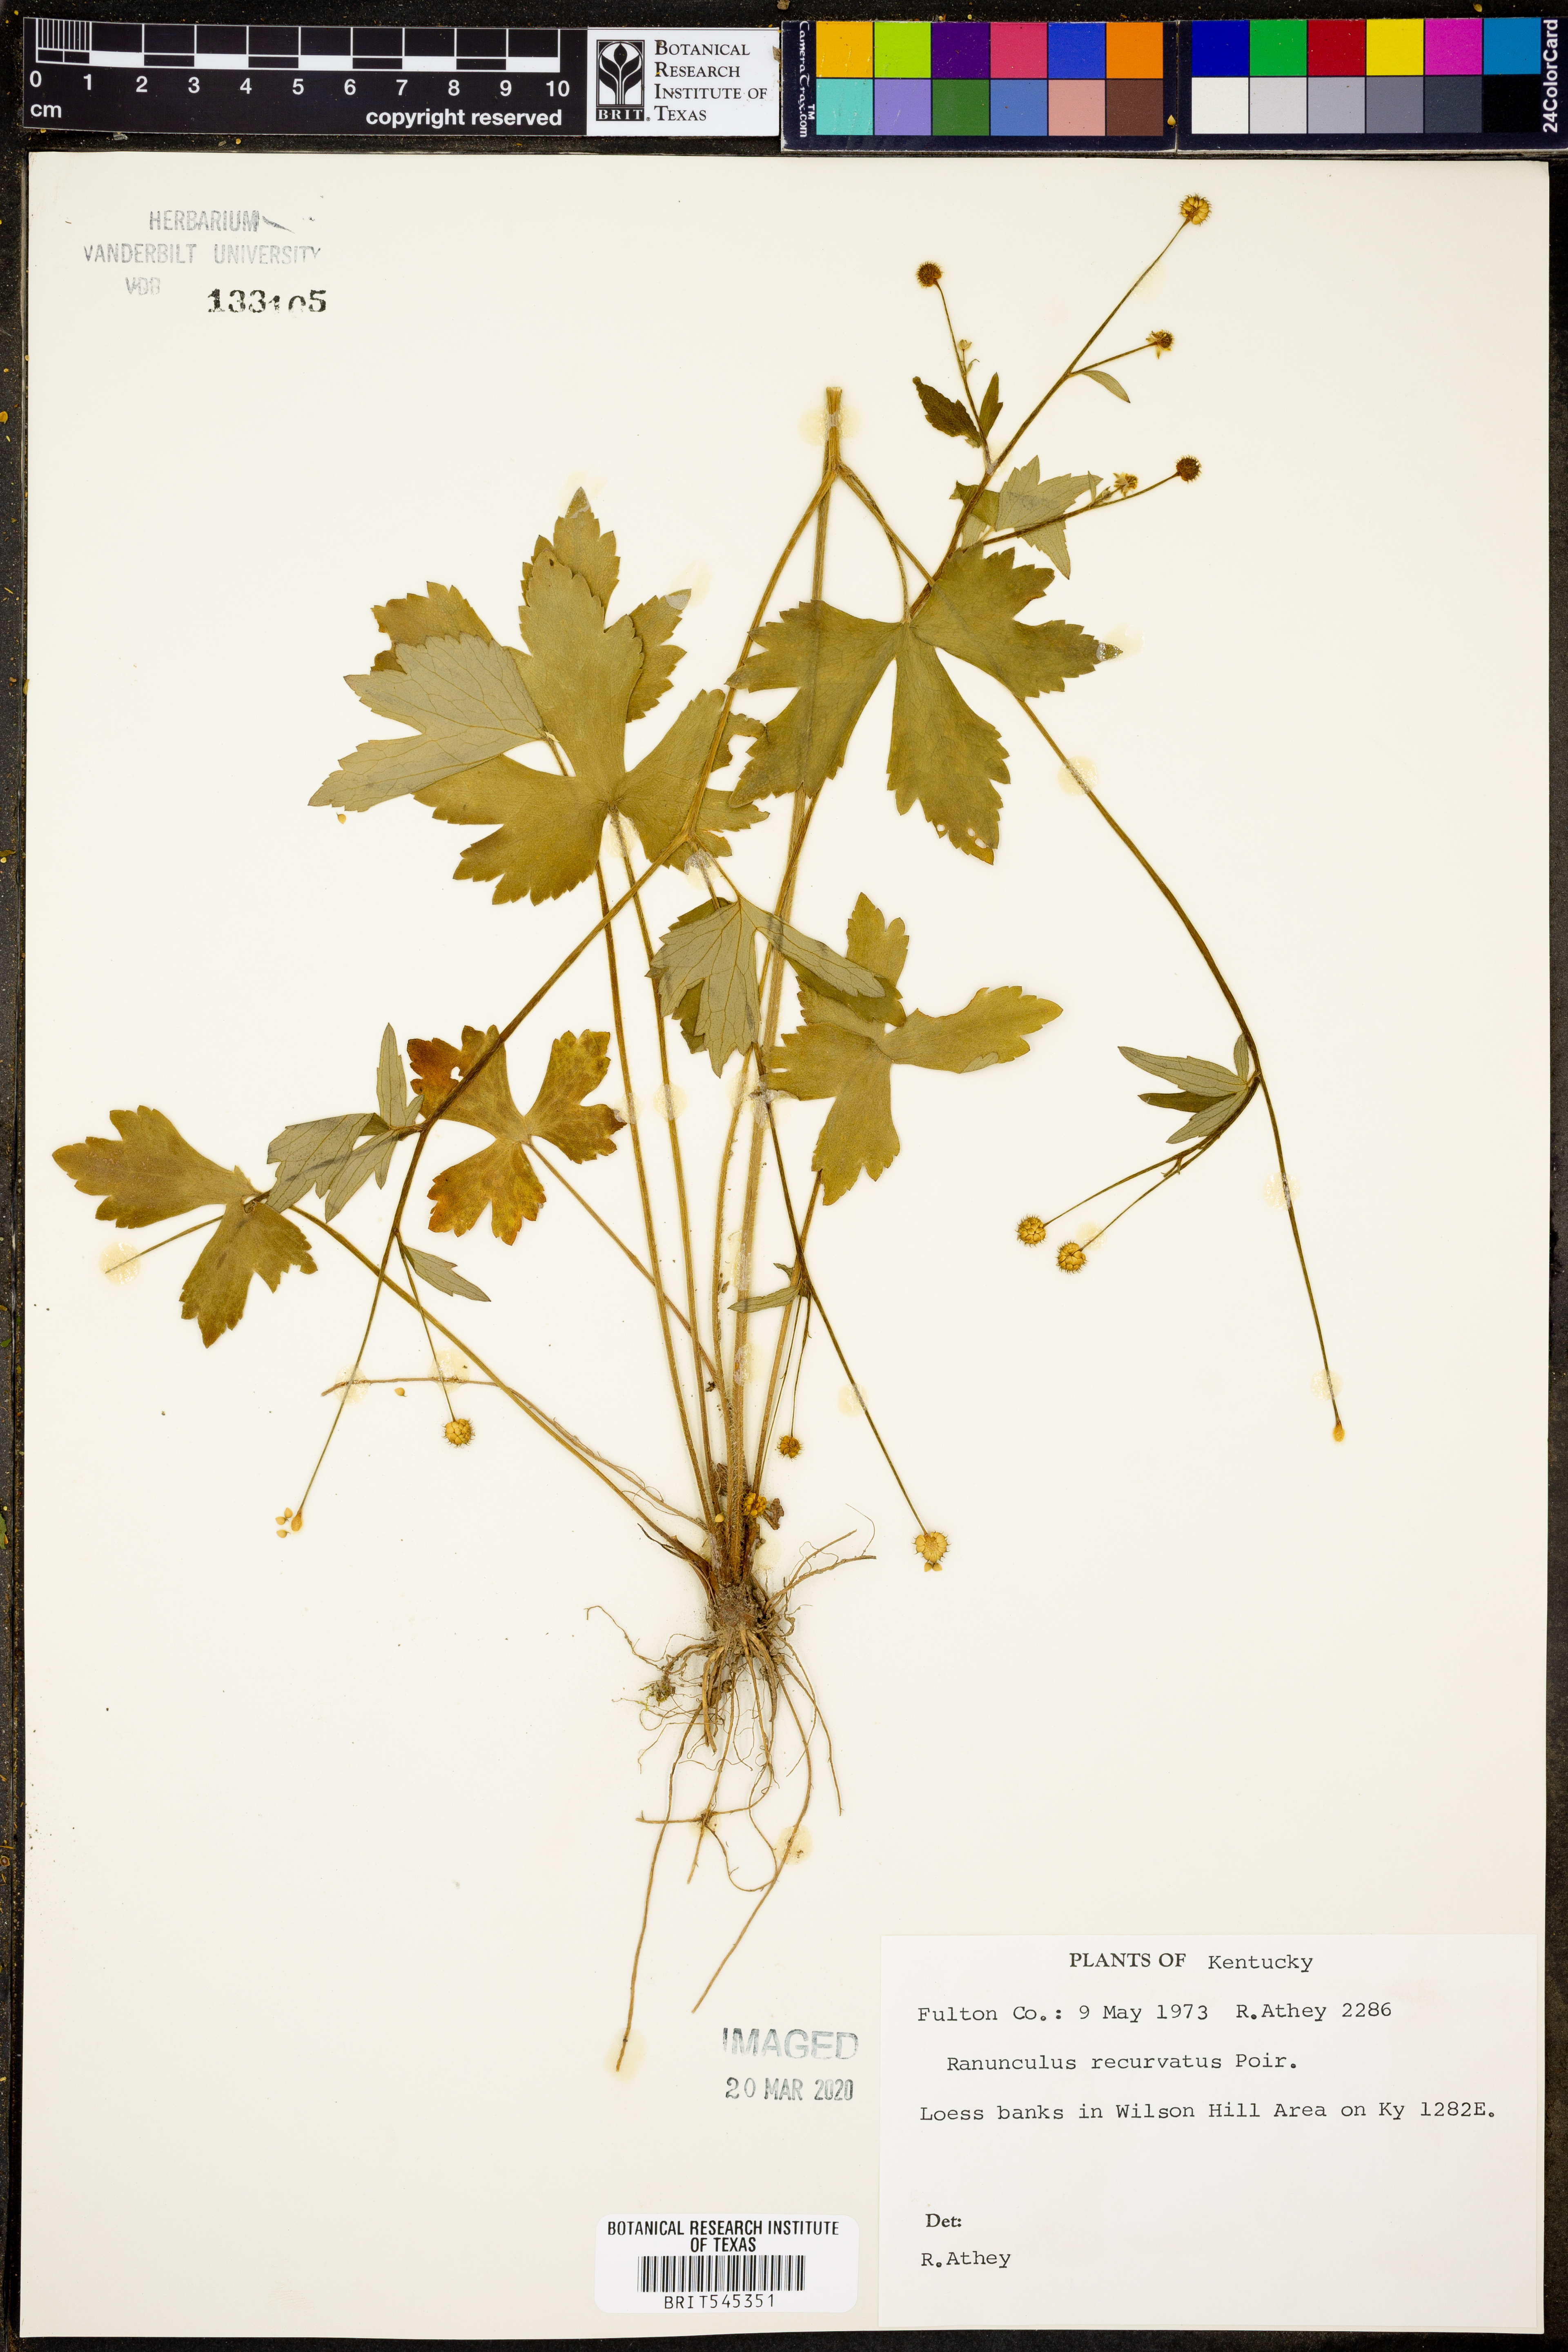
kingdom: Plantae
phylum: Tracheophyta
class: Magnoliopsida
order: Ranunculales
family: Ranunculaceae
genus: Ranunculus
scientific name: Ranunculus recurvatus
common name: Blisterwort
